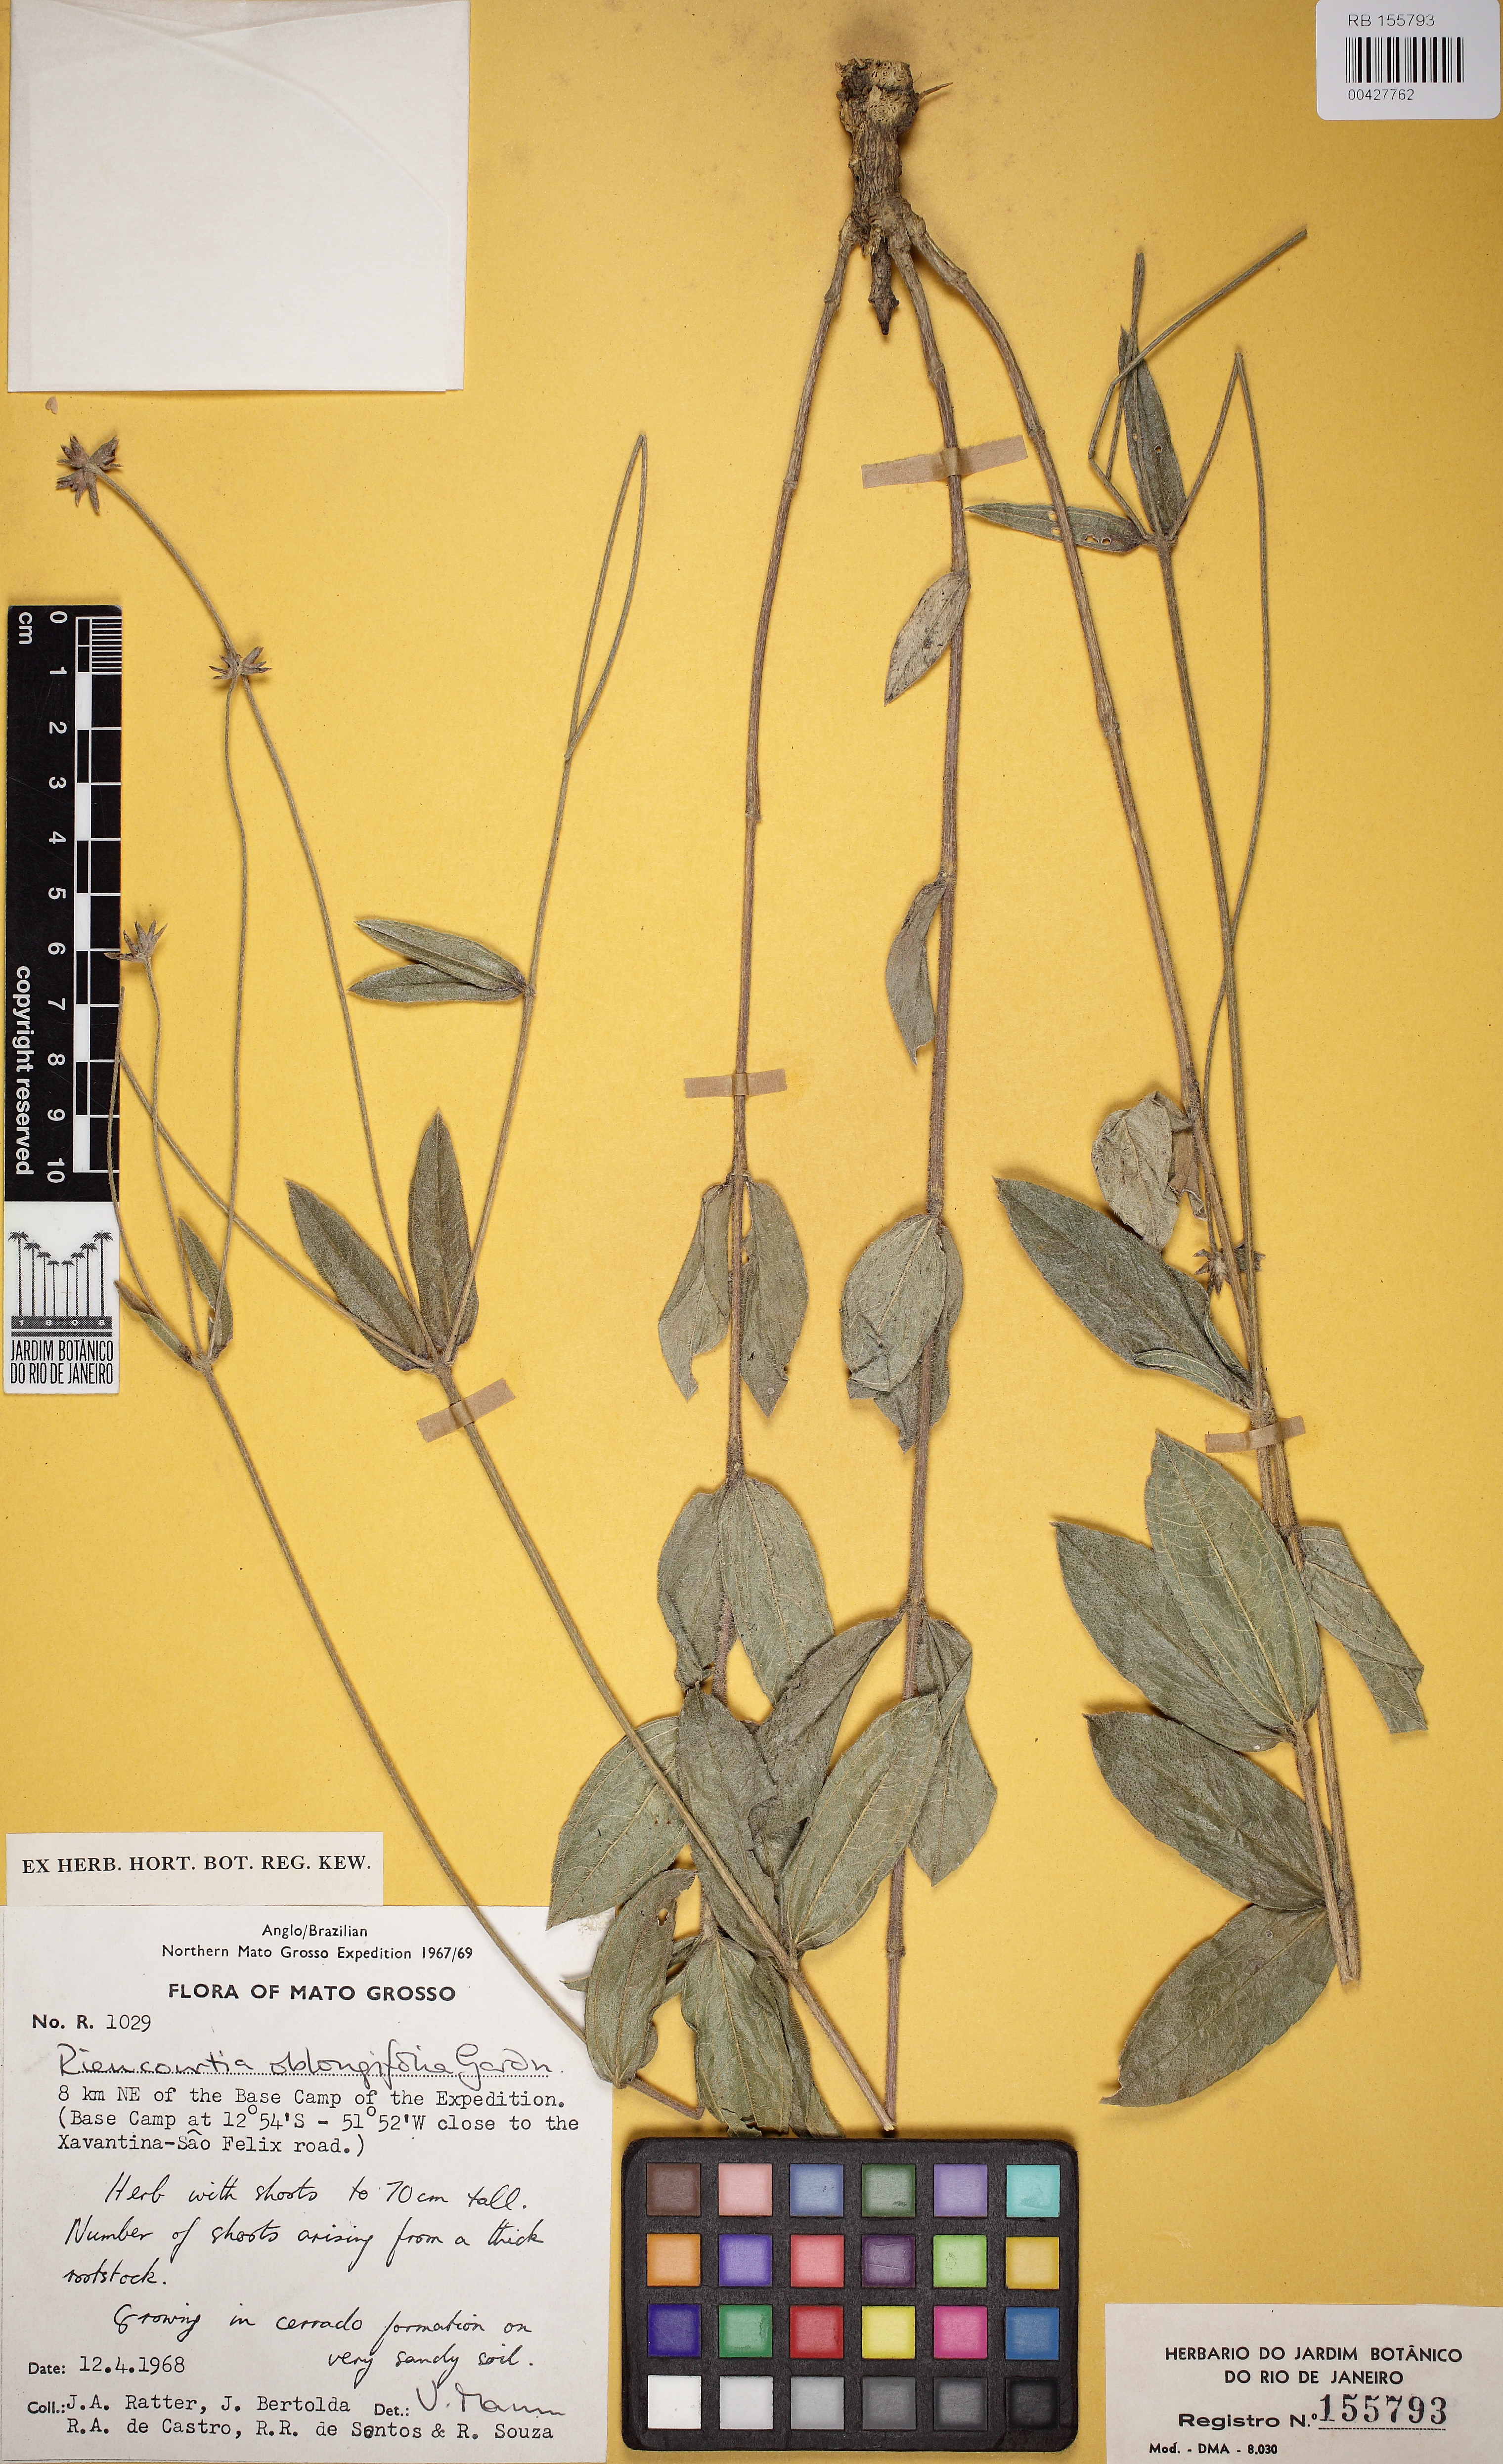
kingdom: Plantae
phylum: Tracheophyta
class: Magnoliopsida
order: Asterales
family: Asteraceae
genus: Riencourtia
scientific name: Riencourtia oblongifolia
